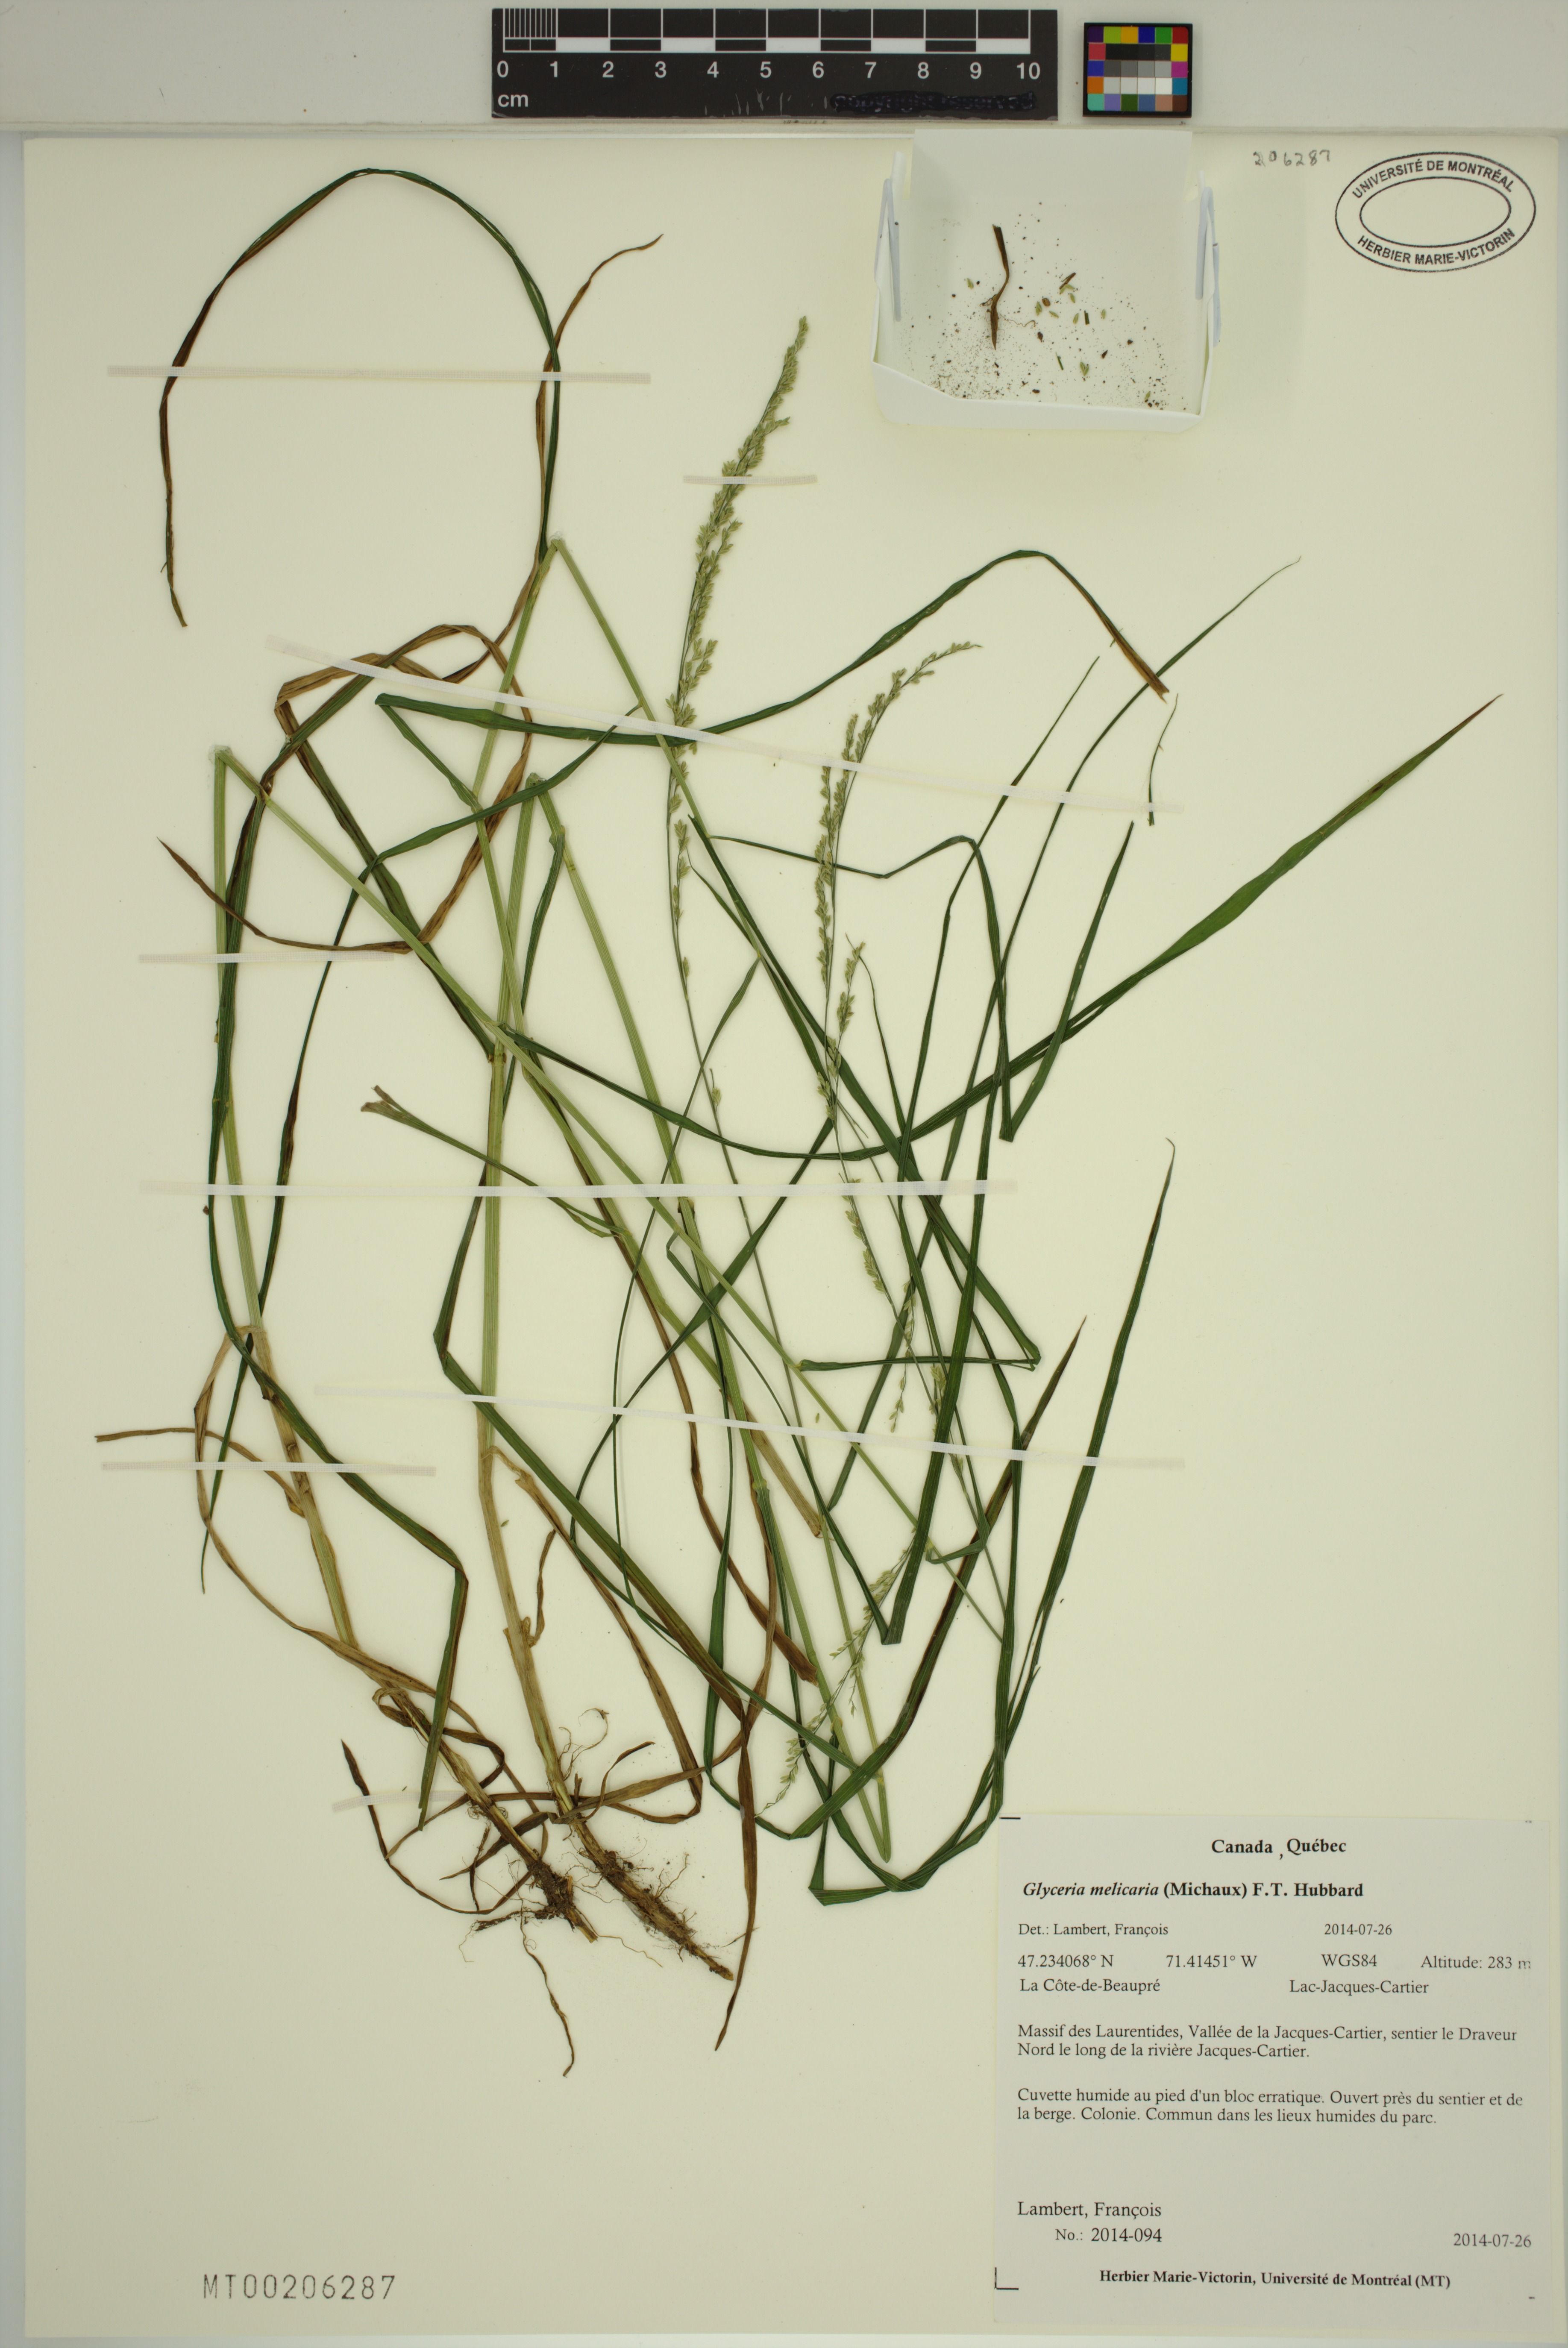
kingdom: Plantae
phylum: Tracheophyta
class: Liliopsida
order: Poales
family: Poaceae
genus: Glyceria
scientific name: Glyceria melicaria
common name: Long mannagrass
